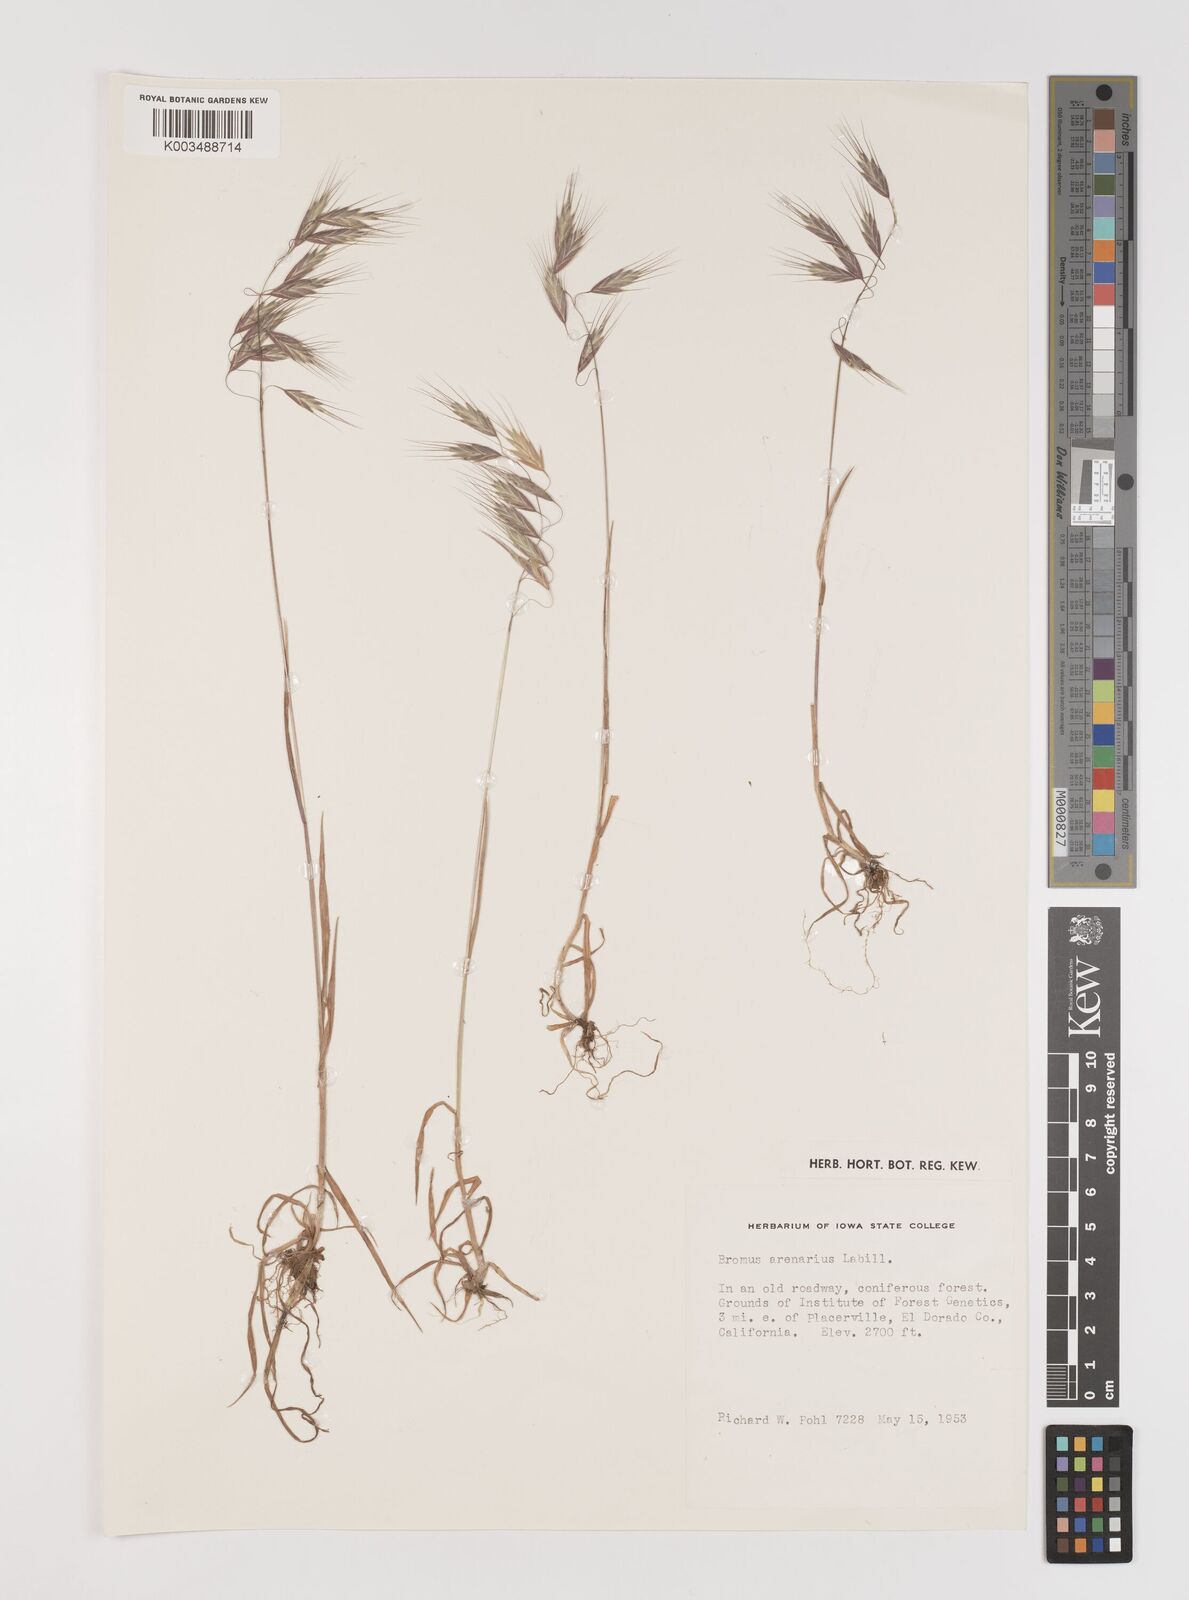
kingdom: Plantae
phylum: Tracheophyta
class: Liliopsida
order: Poales
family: Poaceae
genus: Bromus
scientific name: Bromus arenarius
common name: Australian brome
